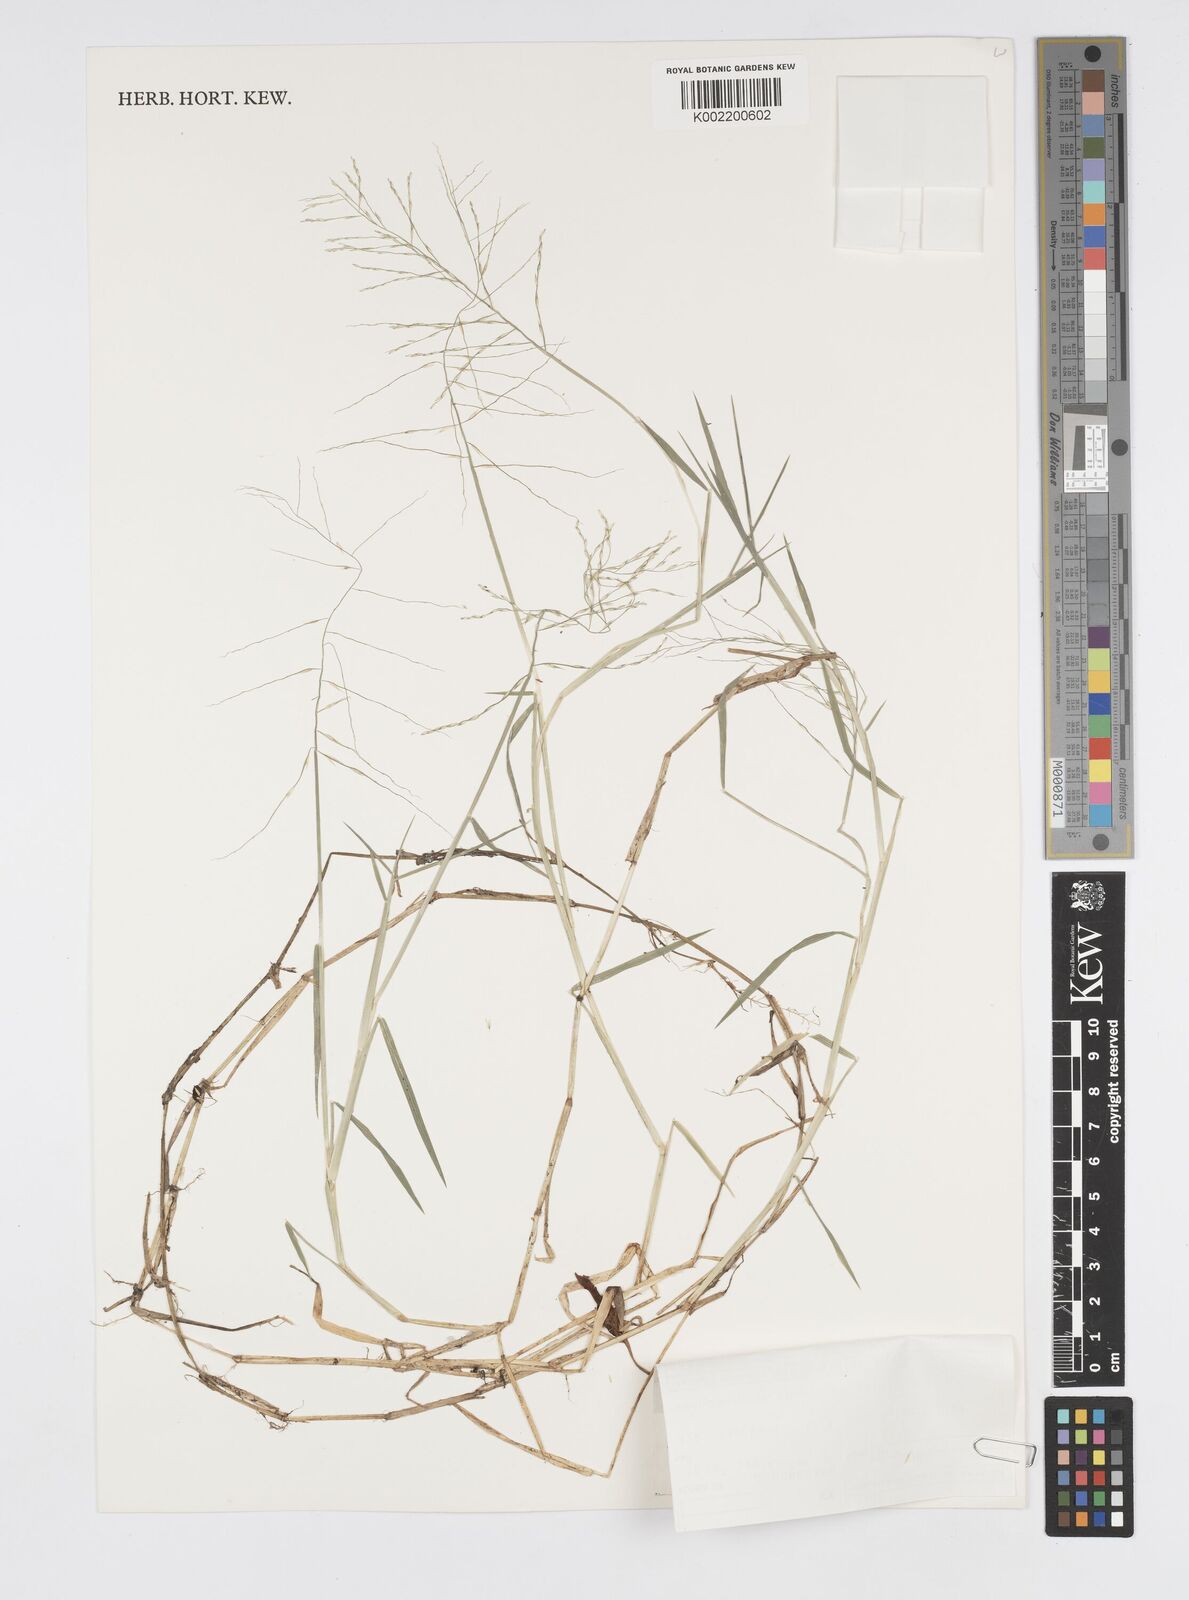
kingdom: Plantae
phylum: Tracheophyta
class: Liliopsida
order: Poales
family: Poaceae
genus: Pseudoraphis
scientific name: Pseudoraphis spinescens
